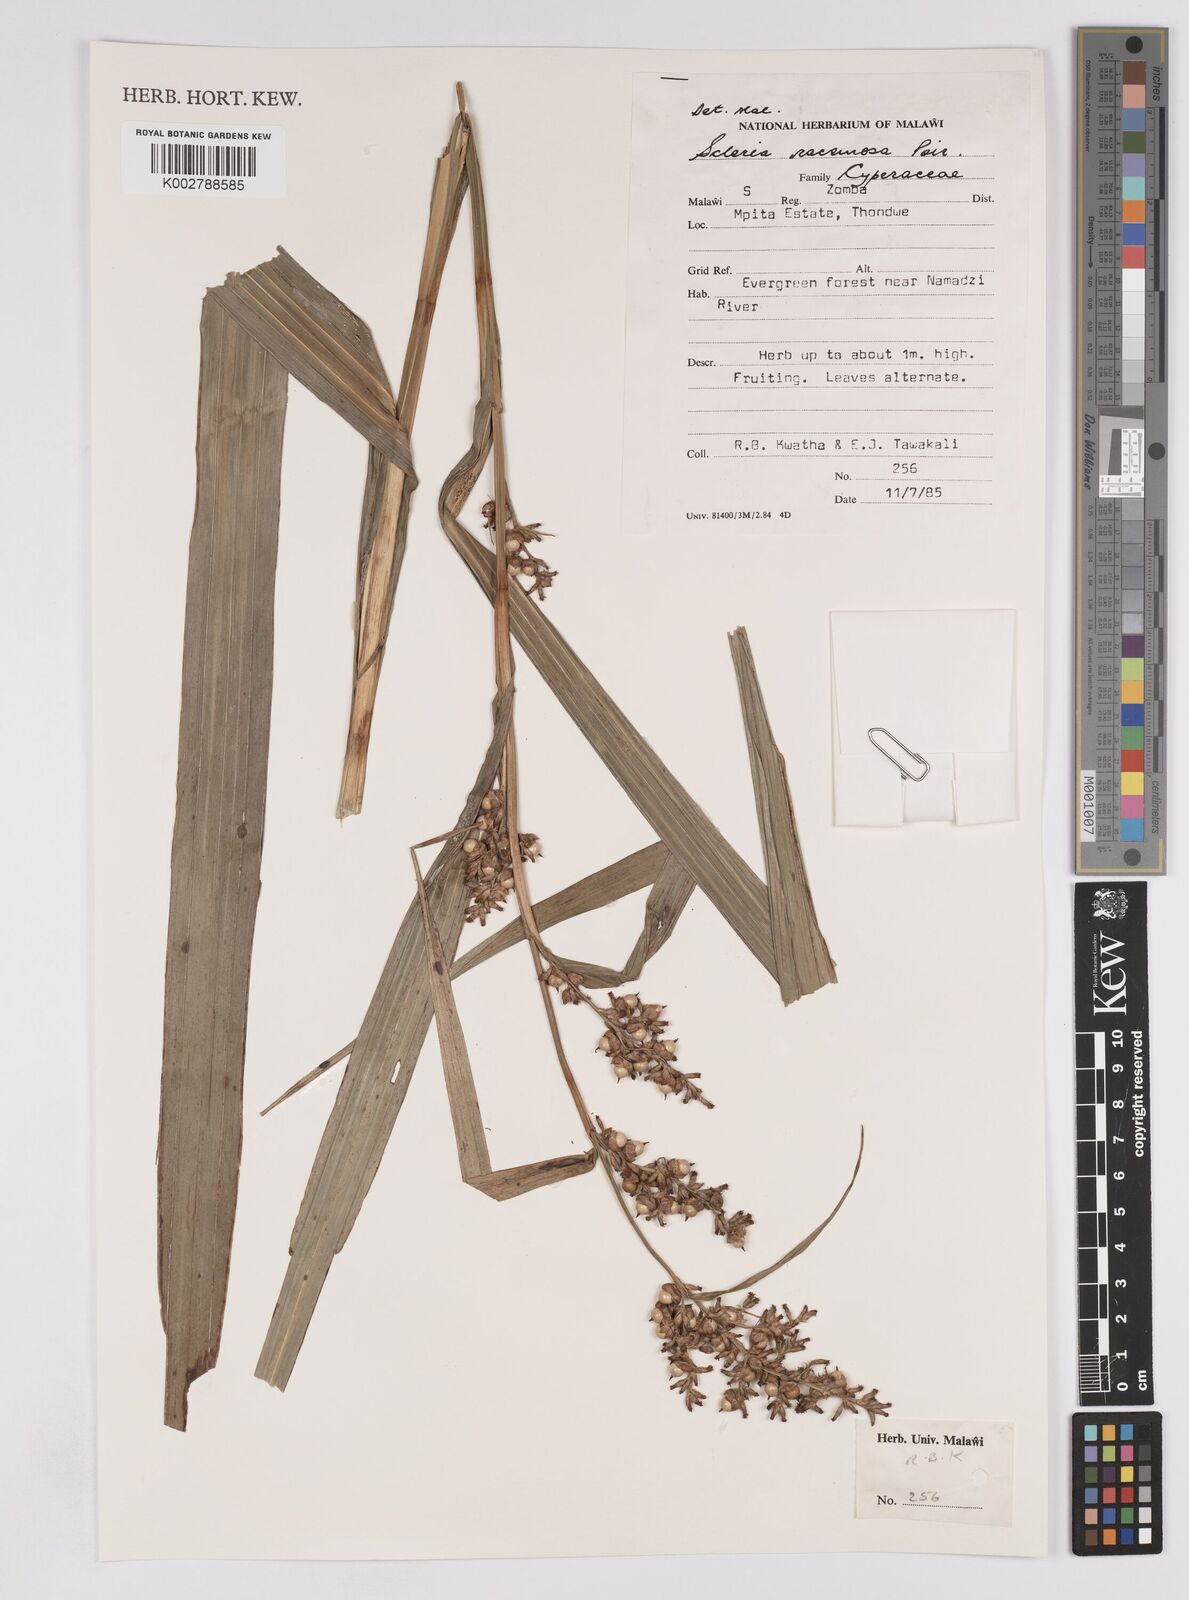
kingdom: Plantae
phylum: Tracheophyta
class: Liliopsida
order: Poales
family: Cyperaceae
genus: Scleria
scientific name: Scleria racemosa
